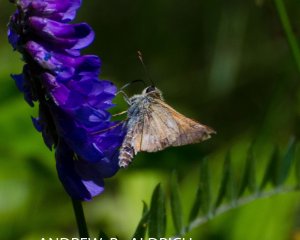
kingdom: Animalia
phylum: Arthropoda
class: Insecta
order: Lepidoptera
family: Hesperiidae
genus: Polites
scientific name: Polites themistocles
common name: Tawny-edged Skipper
